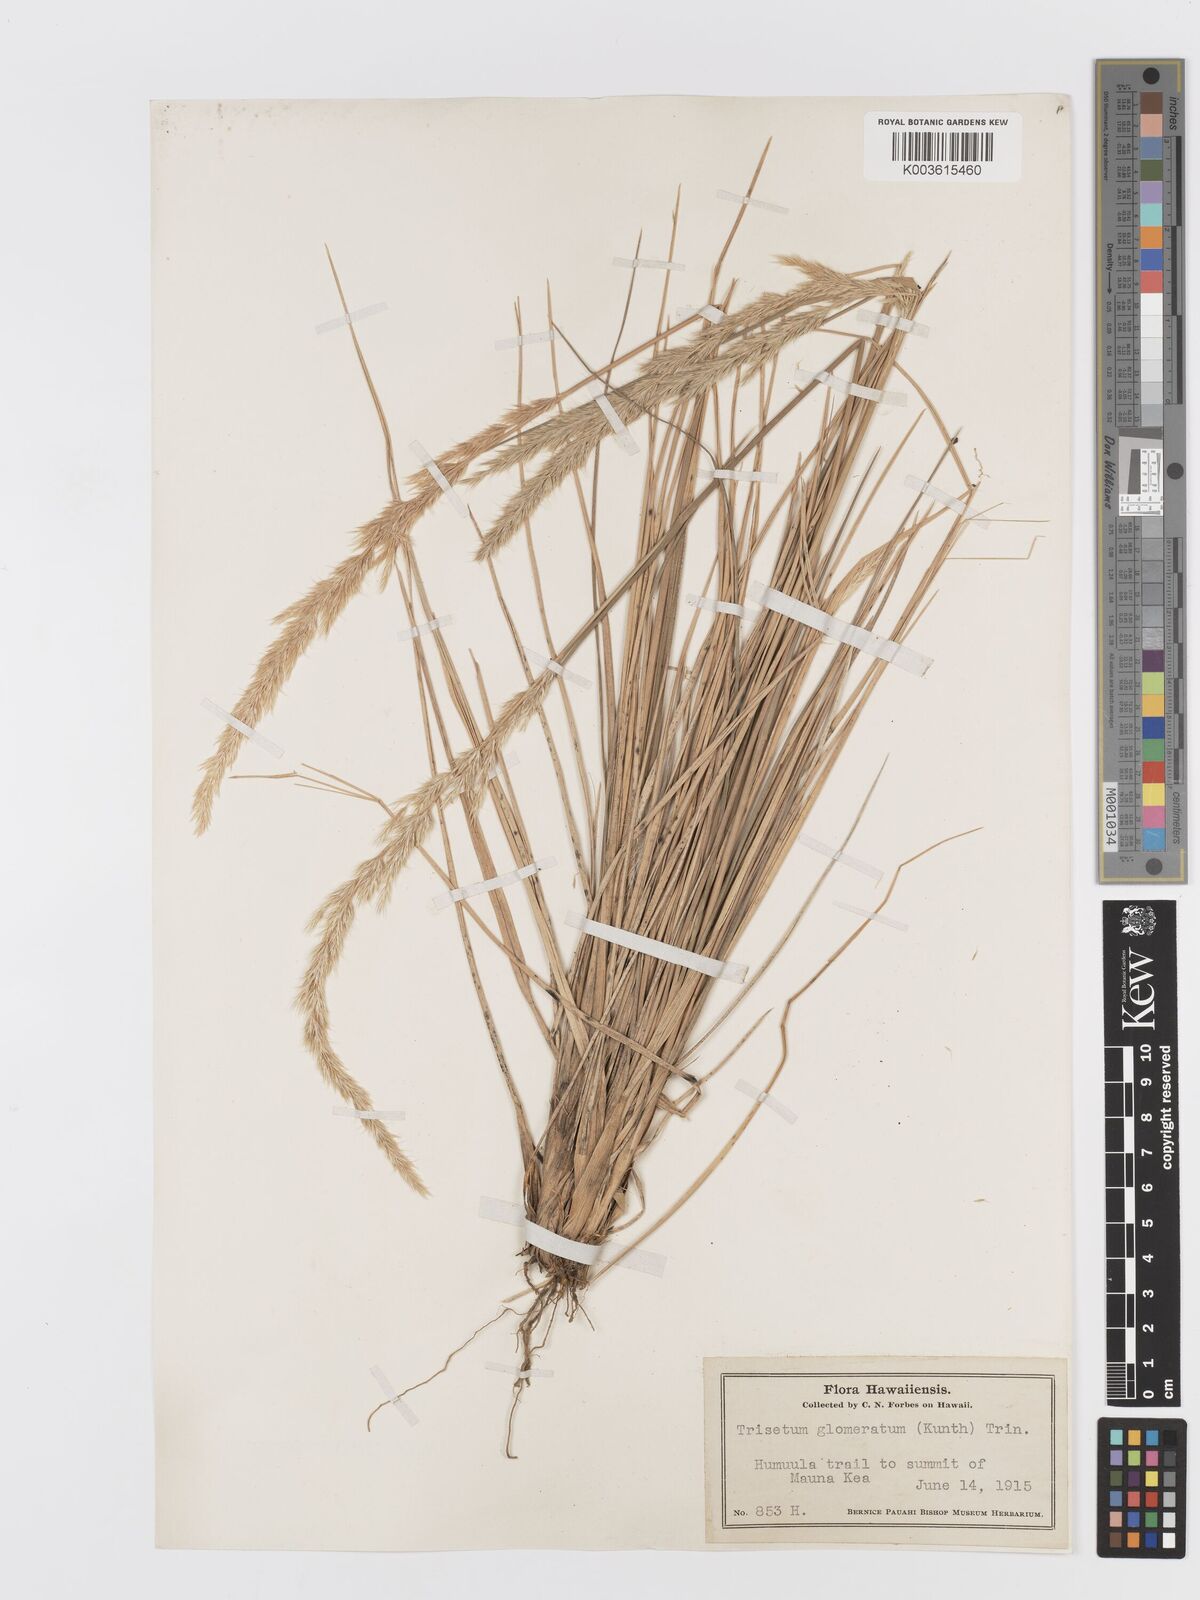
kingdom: Plantae
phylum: Tracheophyta
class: Liliopsida
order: Poales
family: Poaceae
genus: Trisetum
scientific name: Trisetum glomeratum
